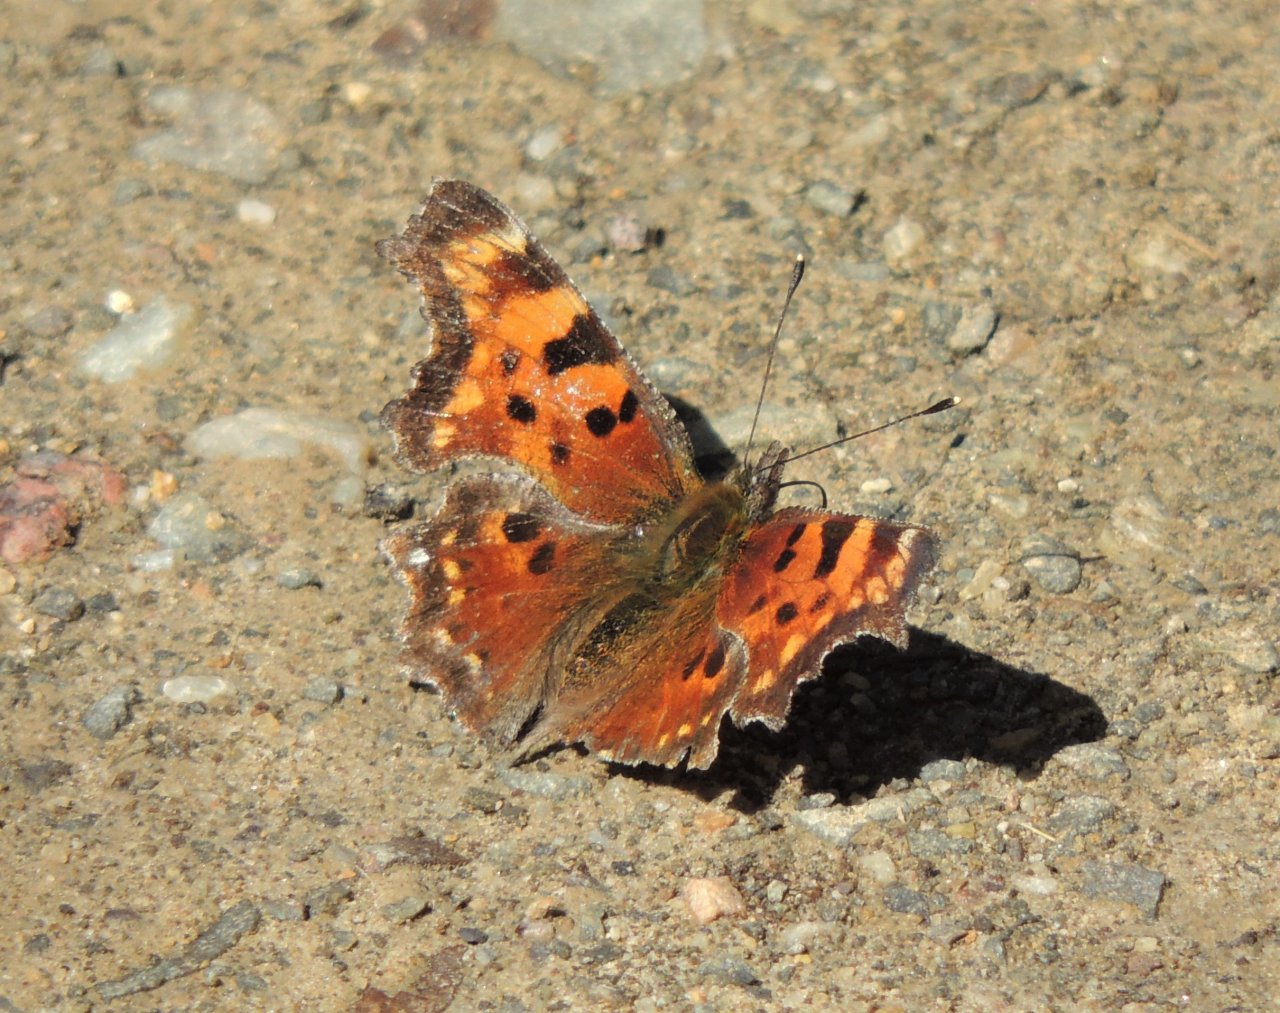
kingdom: Animalia
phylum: Arthropoda
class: Insecta
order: Lepidoptera
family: Nymphalidae
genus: Polygonia
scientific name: Polygonia faunus
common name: Green Comma
